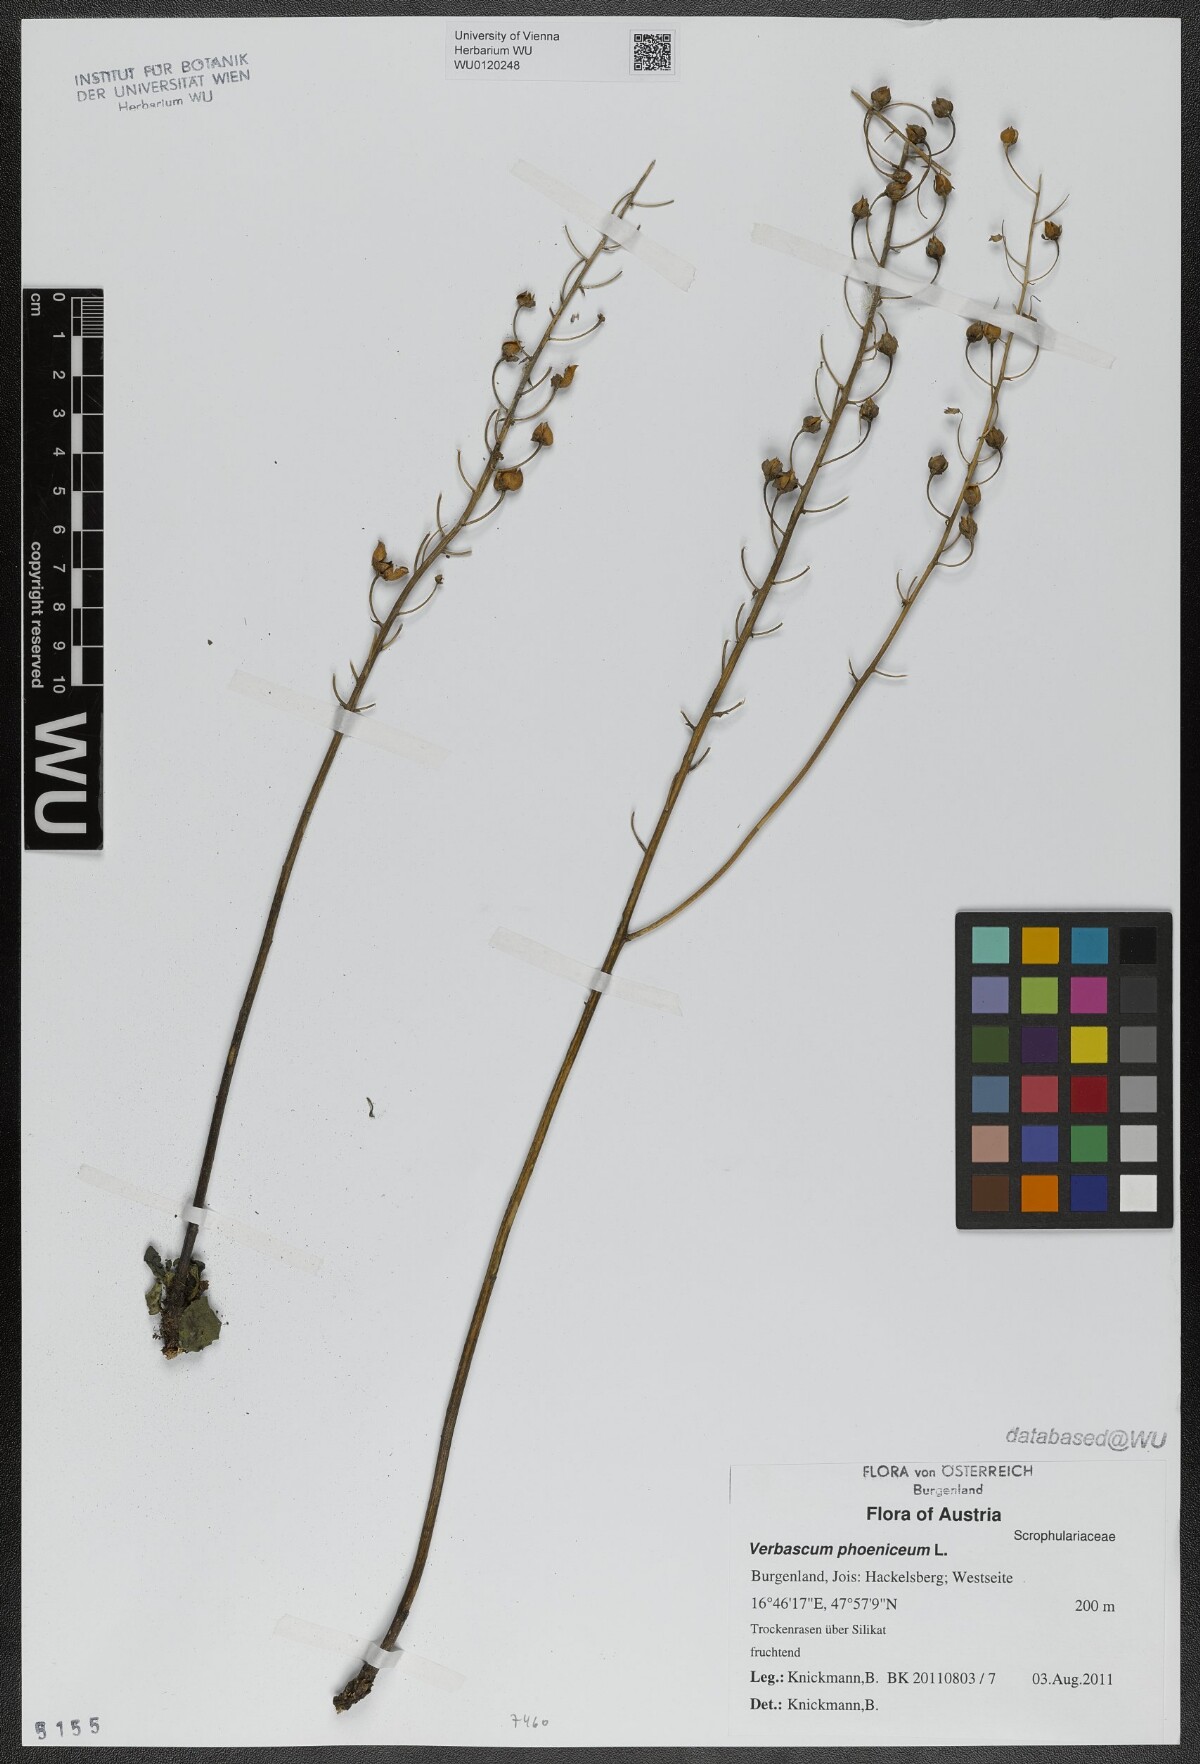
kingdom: Plantae
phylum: Tracheophyta
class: Magnoliopsida
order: Lamiales
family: Scrophulariaceae
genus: Verbascum
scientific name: Verbascum phoeniceum
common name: Purple mullein
